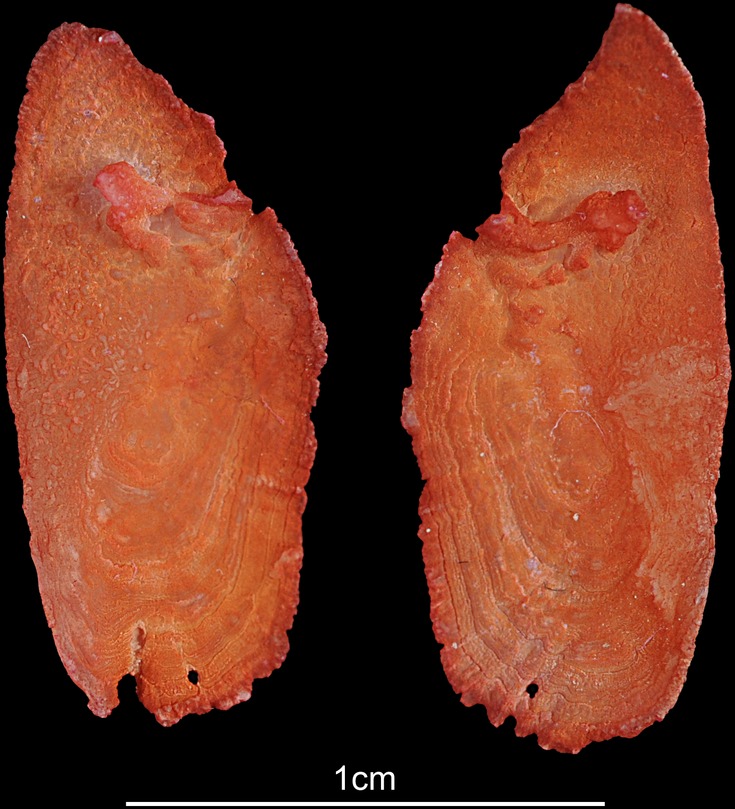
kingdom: Animalia
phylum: Chordata
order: Perciformes
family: Latidae
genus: Lates
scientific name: Lates niloticus
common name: Nile perch
